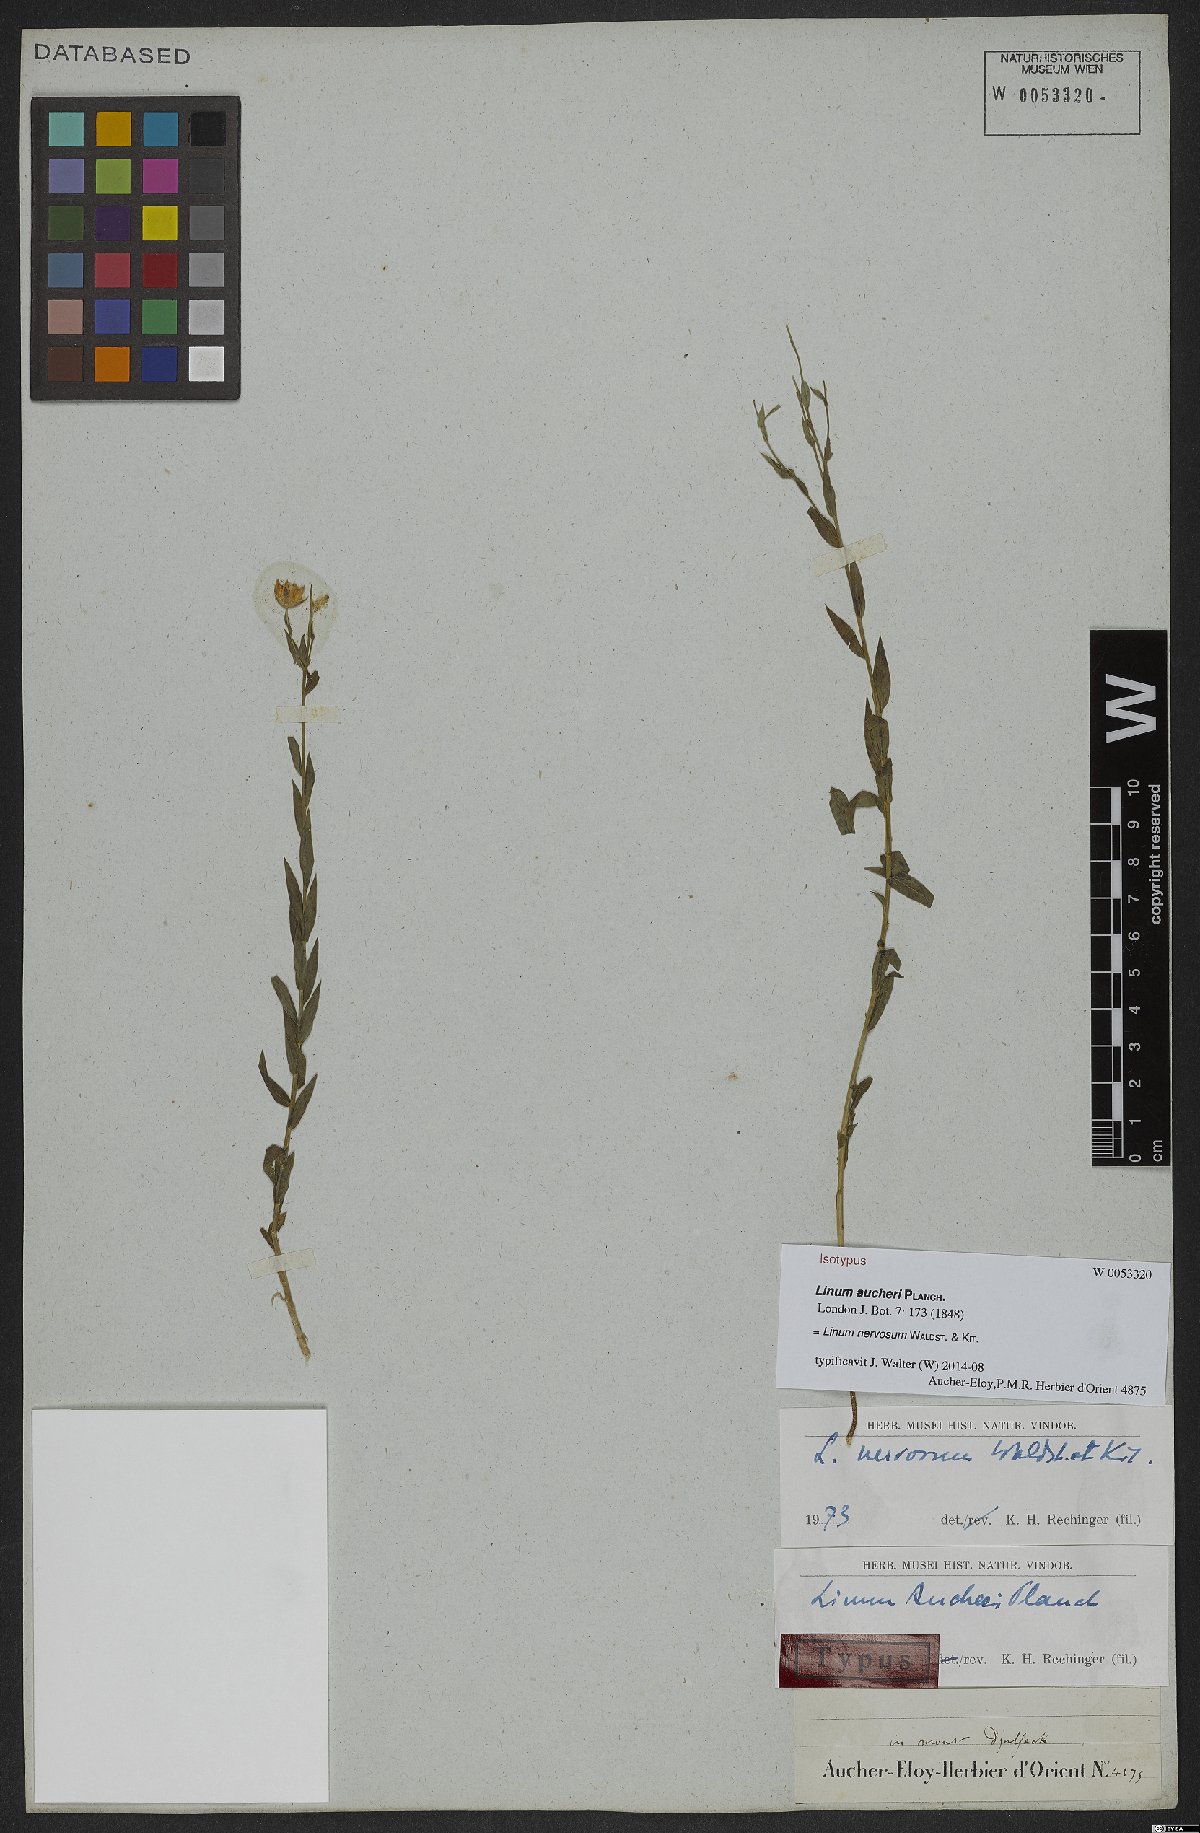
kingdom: Plantae
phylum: Tracheophyta
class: Magnoliopsida
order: Malpighiales
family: Linaceae
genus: Linum
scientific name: Linum nervosum
